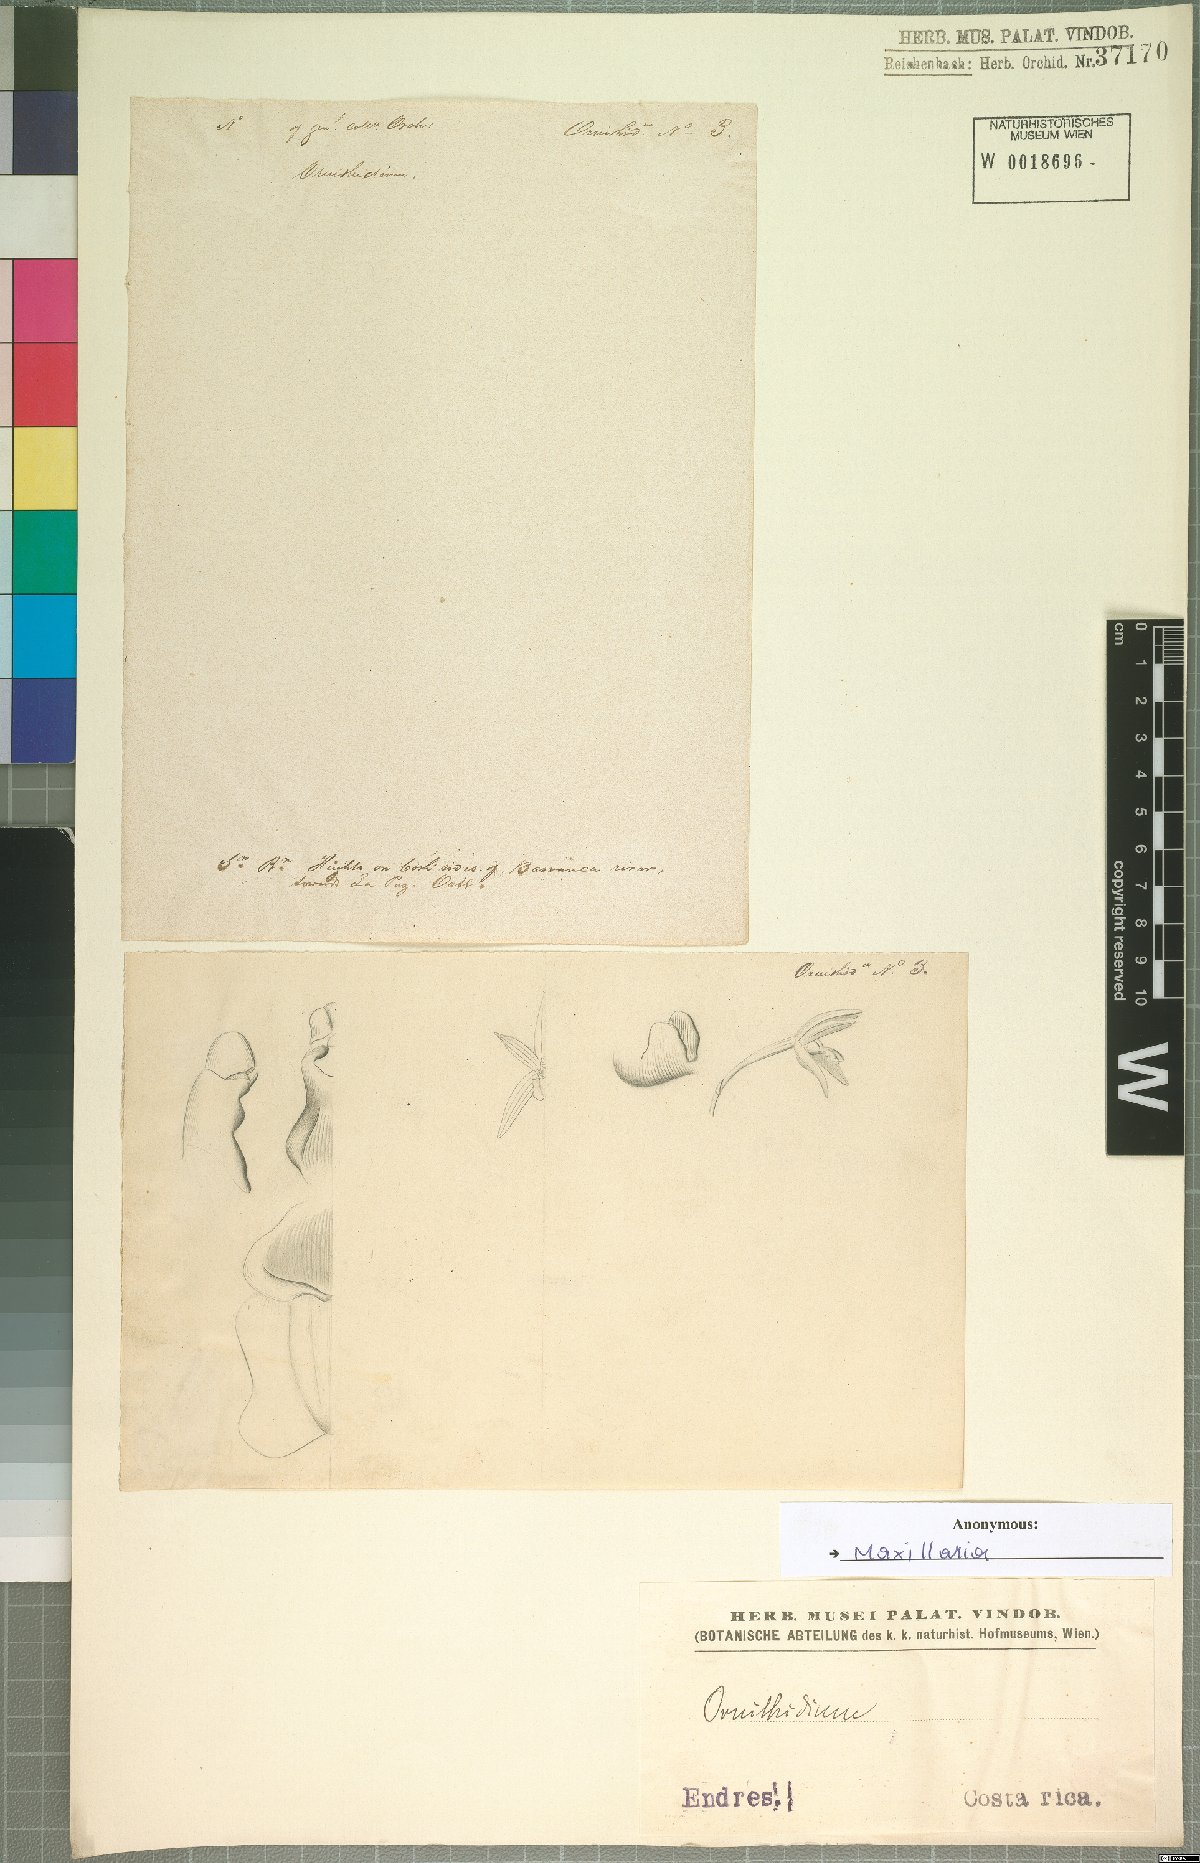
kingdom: Plantae
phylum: Tracheophyta
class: Liliopsida
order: Asparagales
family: Orchidaceae
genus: Maxillaria
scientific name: Maxillaria
